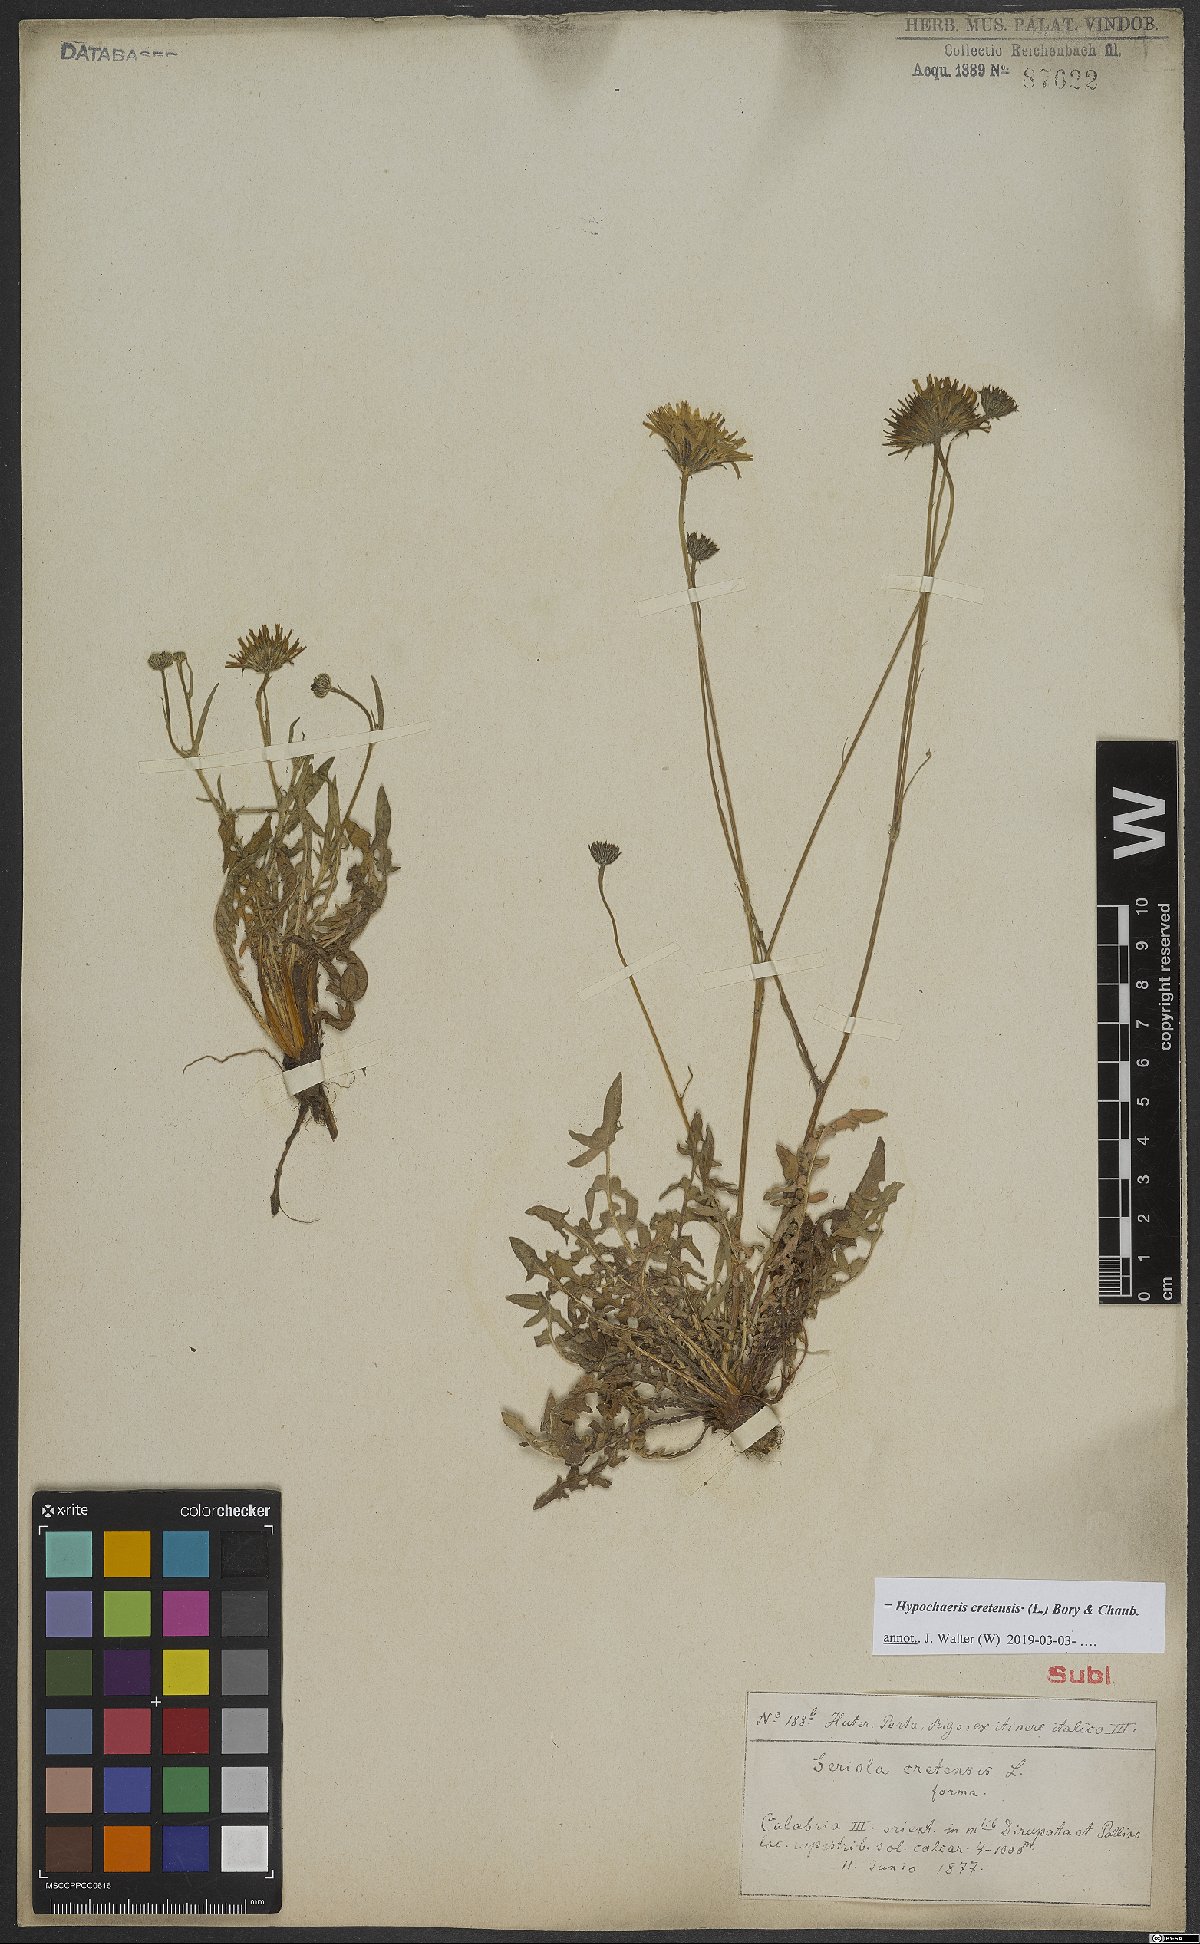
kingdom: Plantae
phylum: Tracheophyta
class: Magnoliopsida
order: Asterales
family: Asteraceae
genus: Hypochaeris
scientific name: Hypochaeris cretensis
